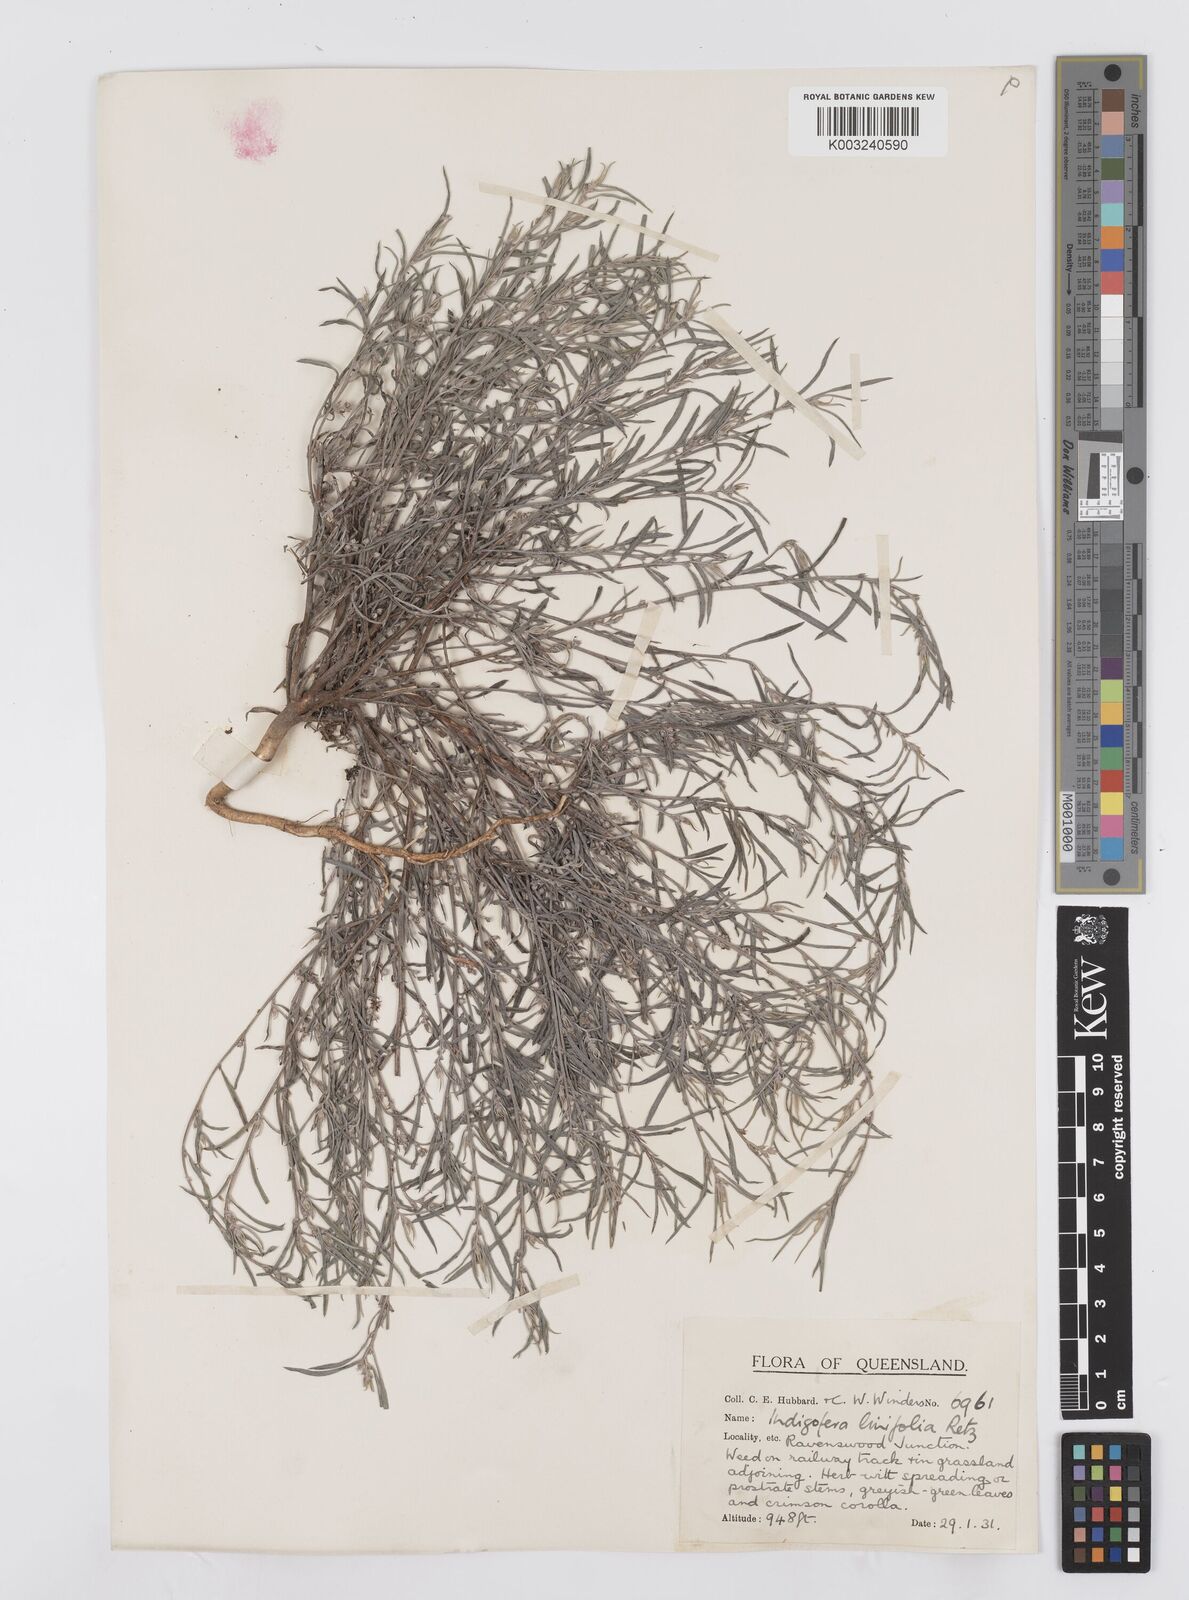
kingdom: Plantae
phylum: Tracheophyta
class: Magnoliopsida
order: Fabales
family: Fabaceae
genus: Indigofera
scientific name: Indigofera linifolia
